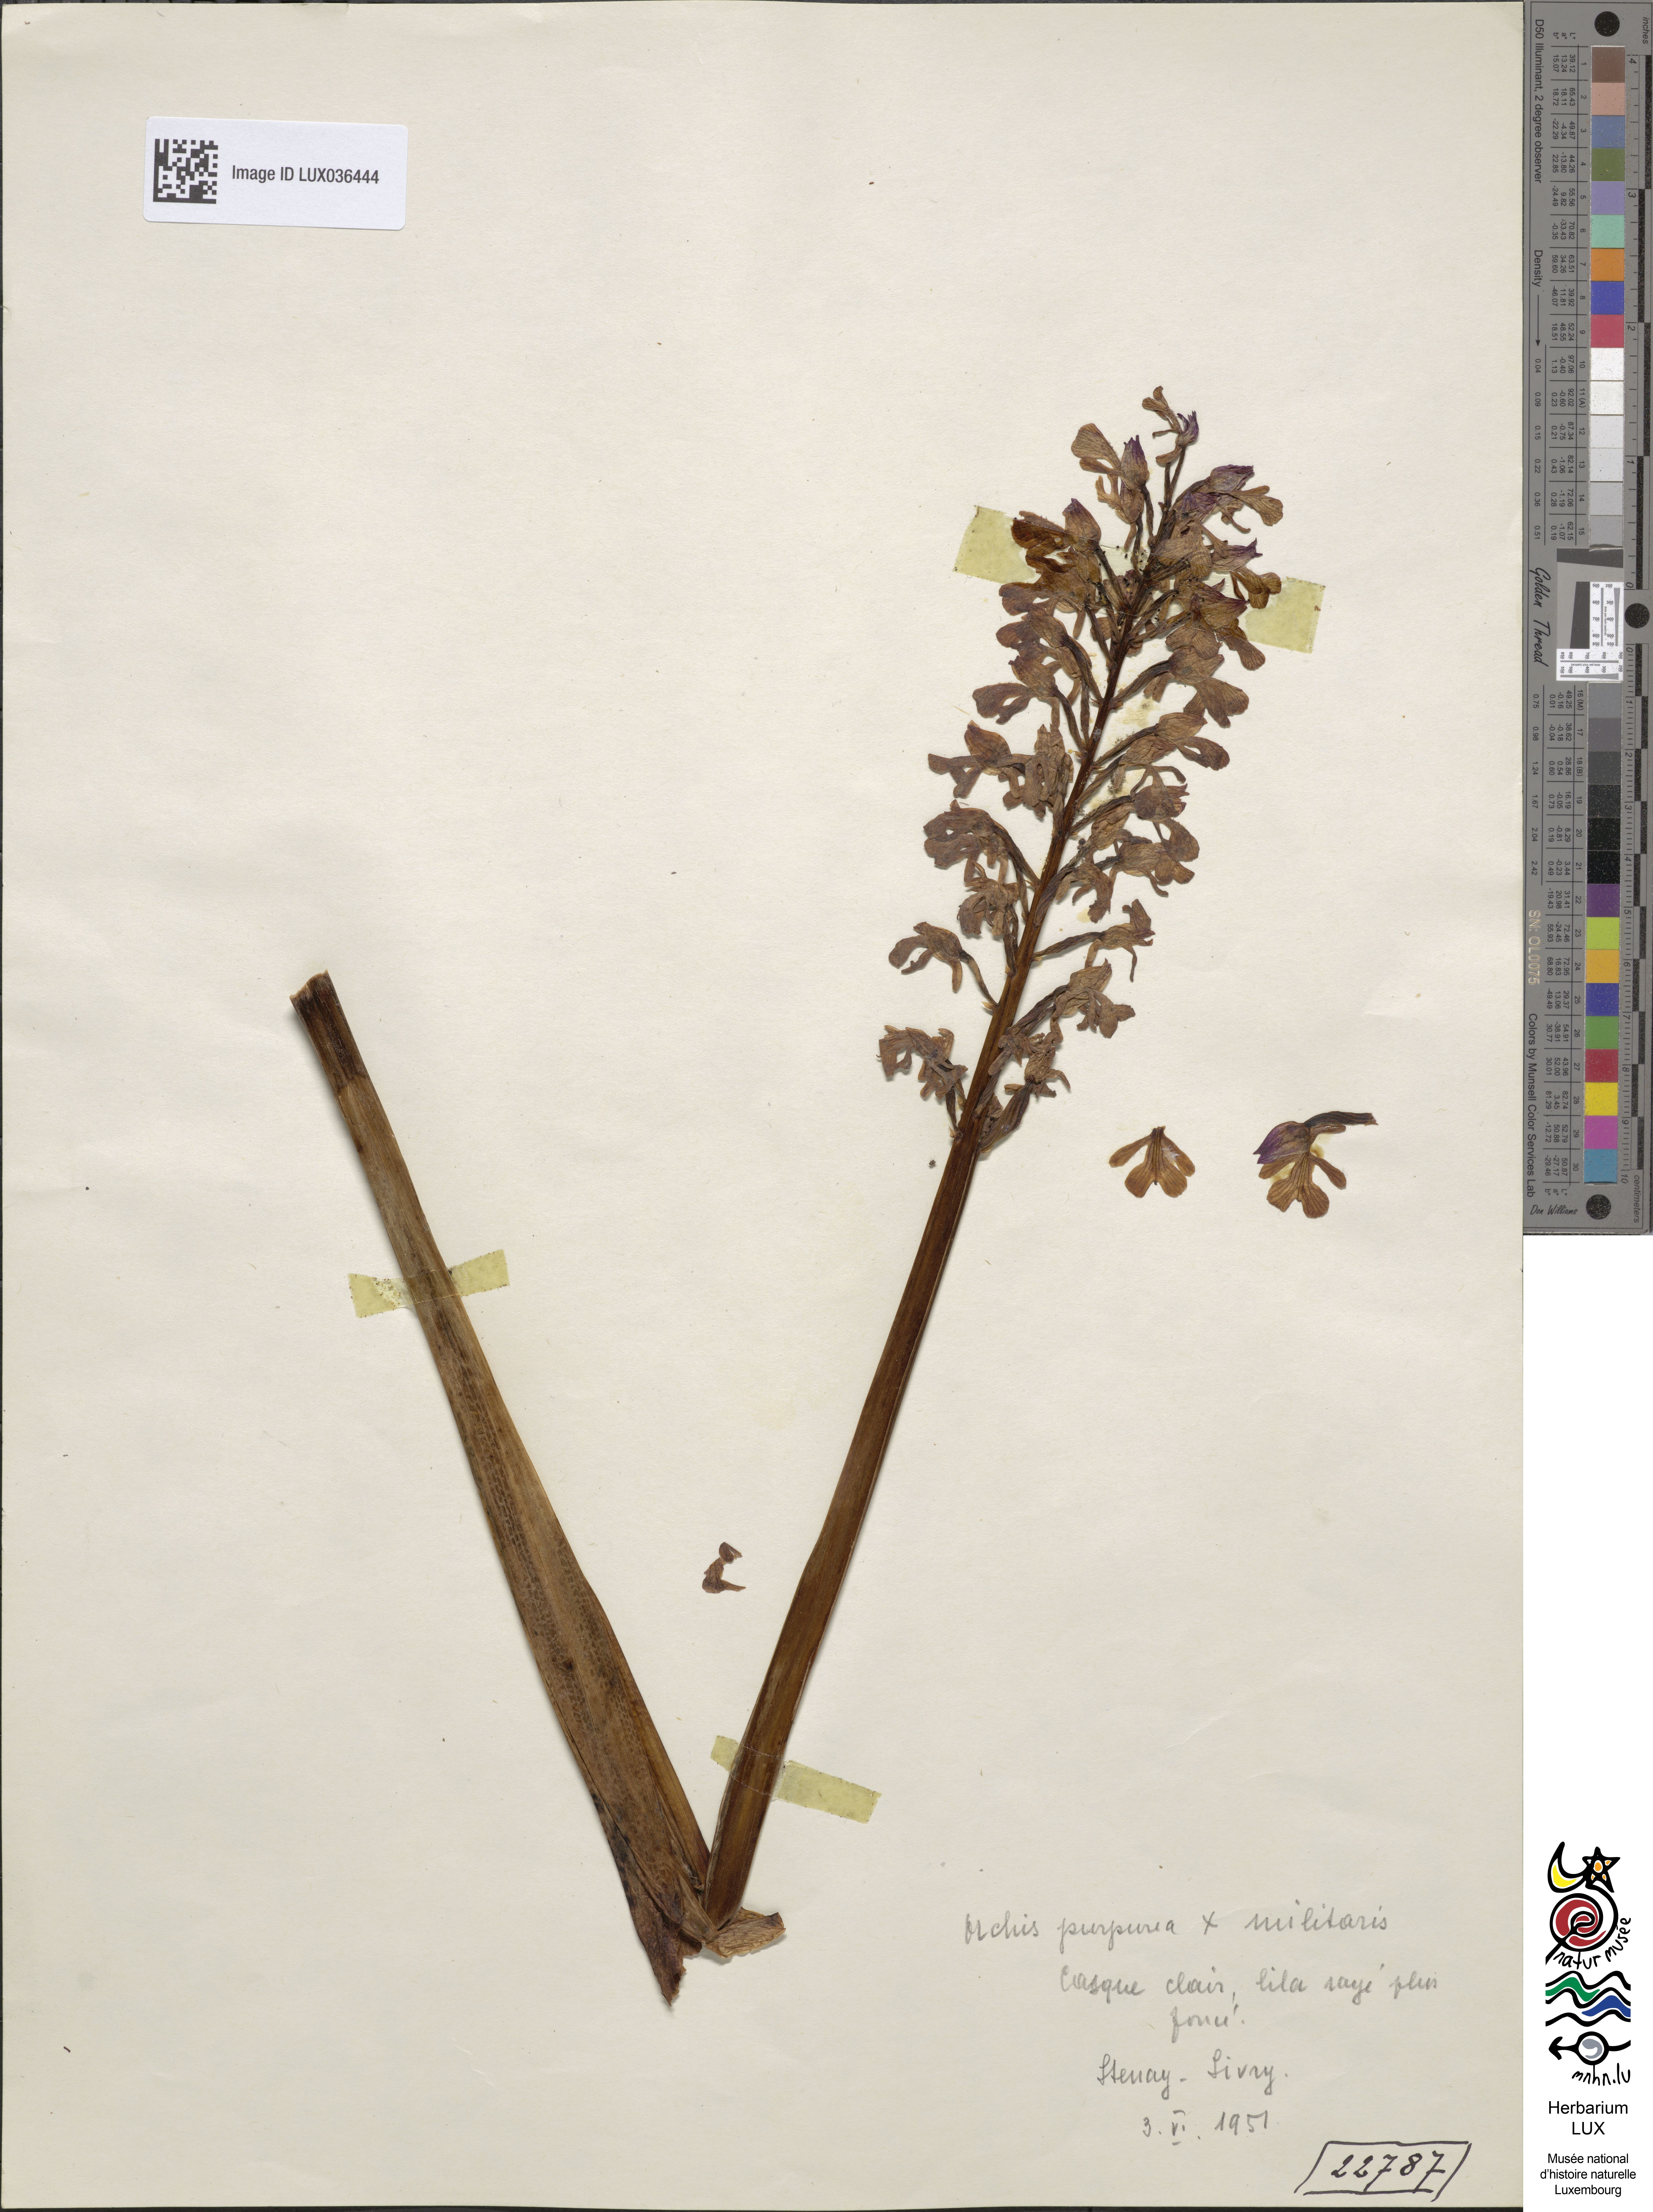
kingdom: Plantae
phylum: Tracheophyta
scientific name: Tracheophyta
